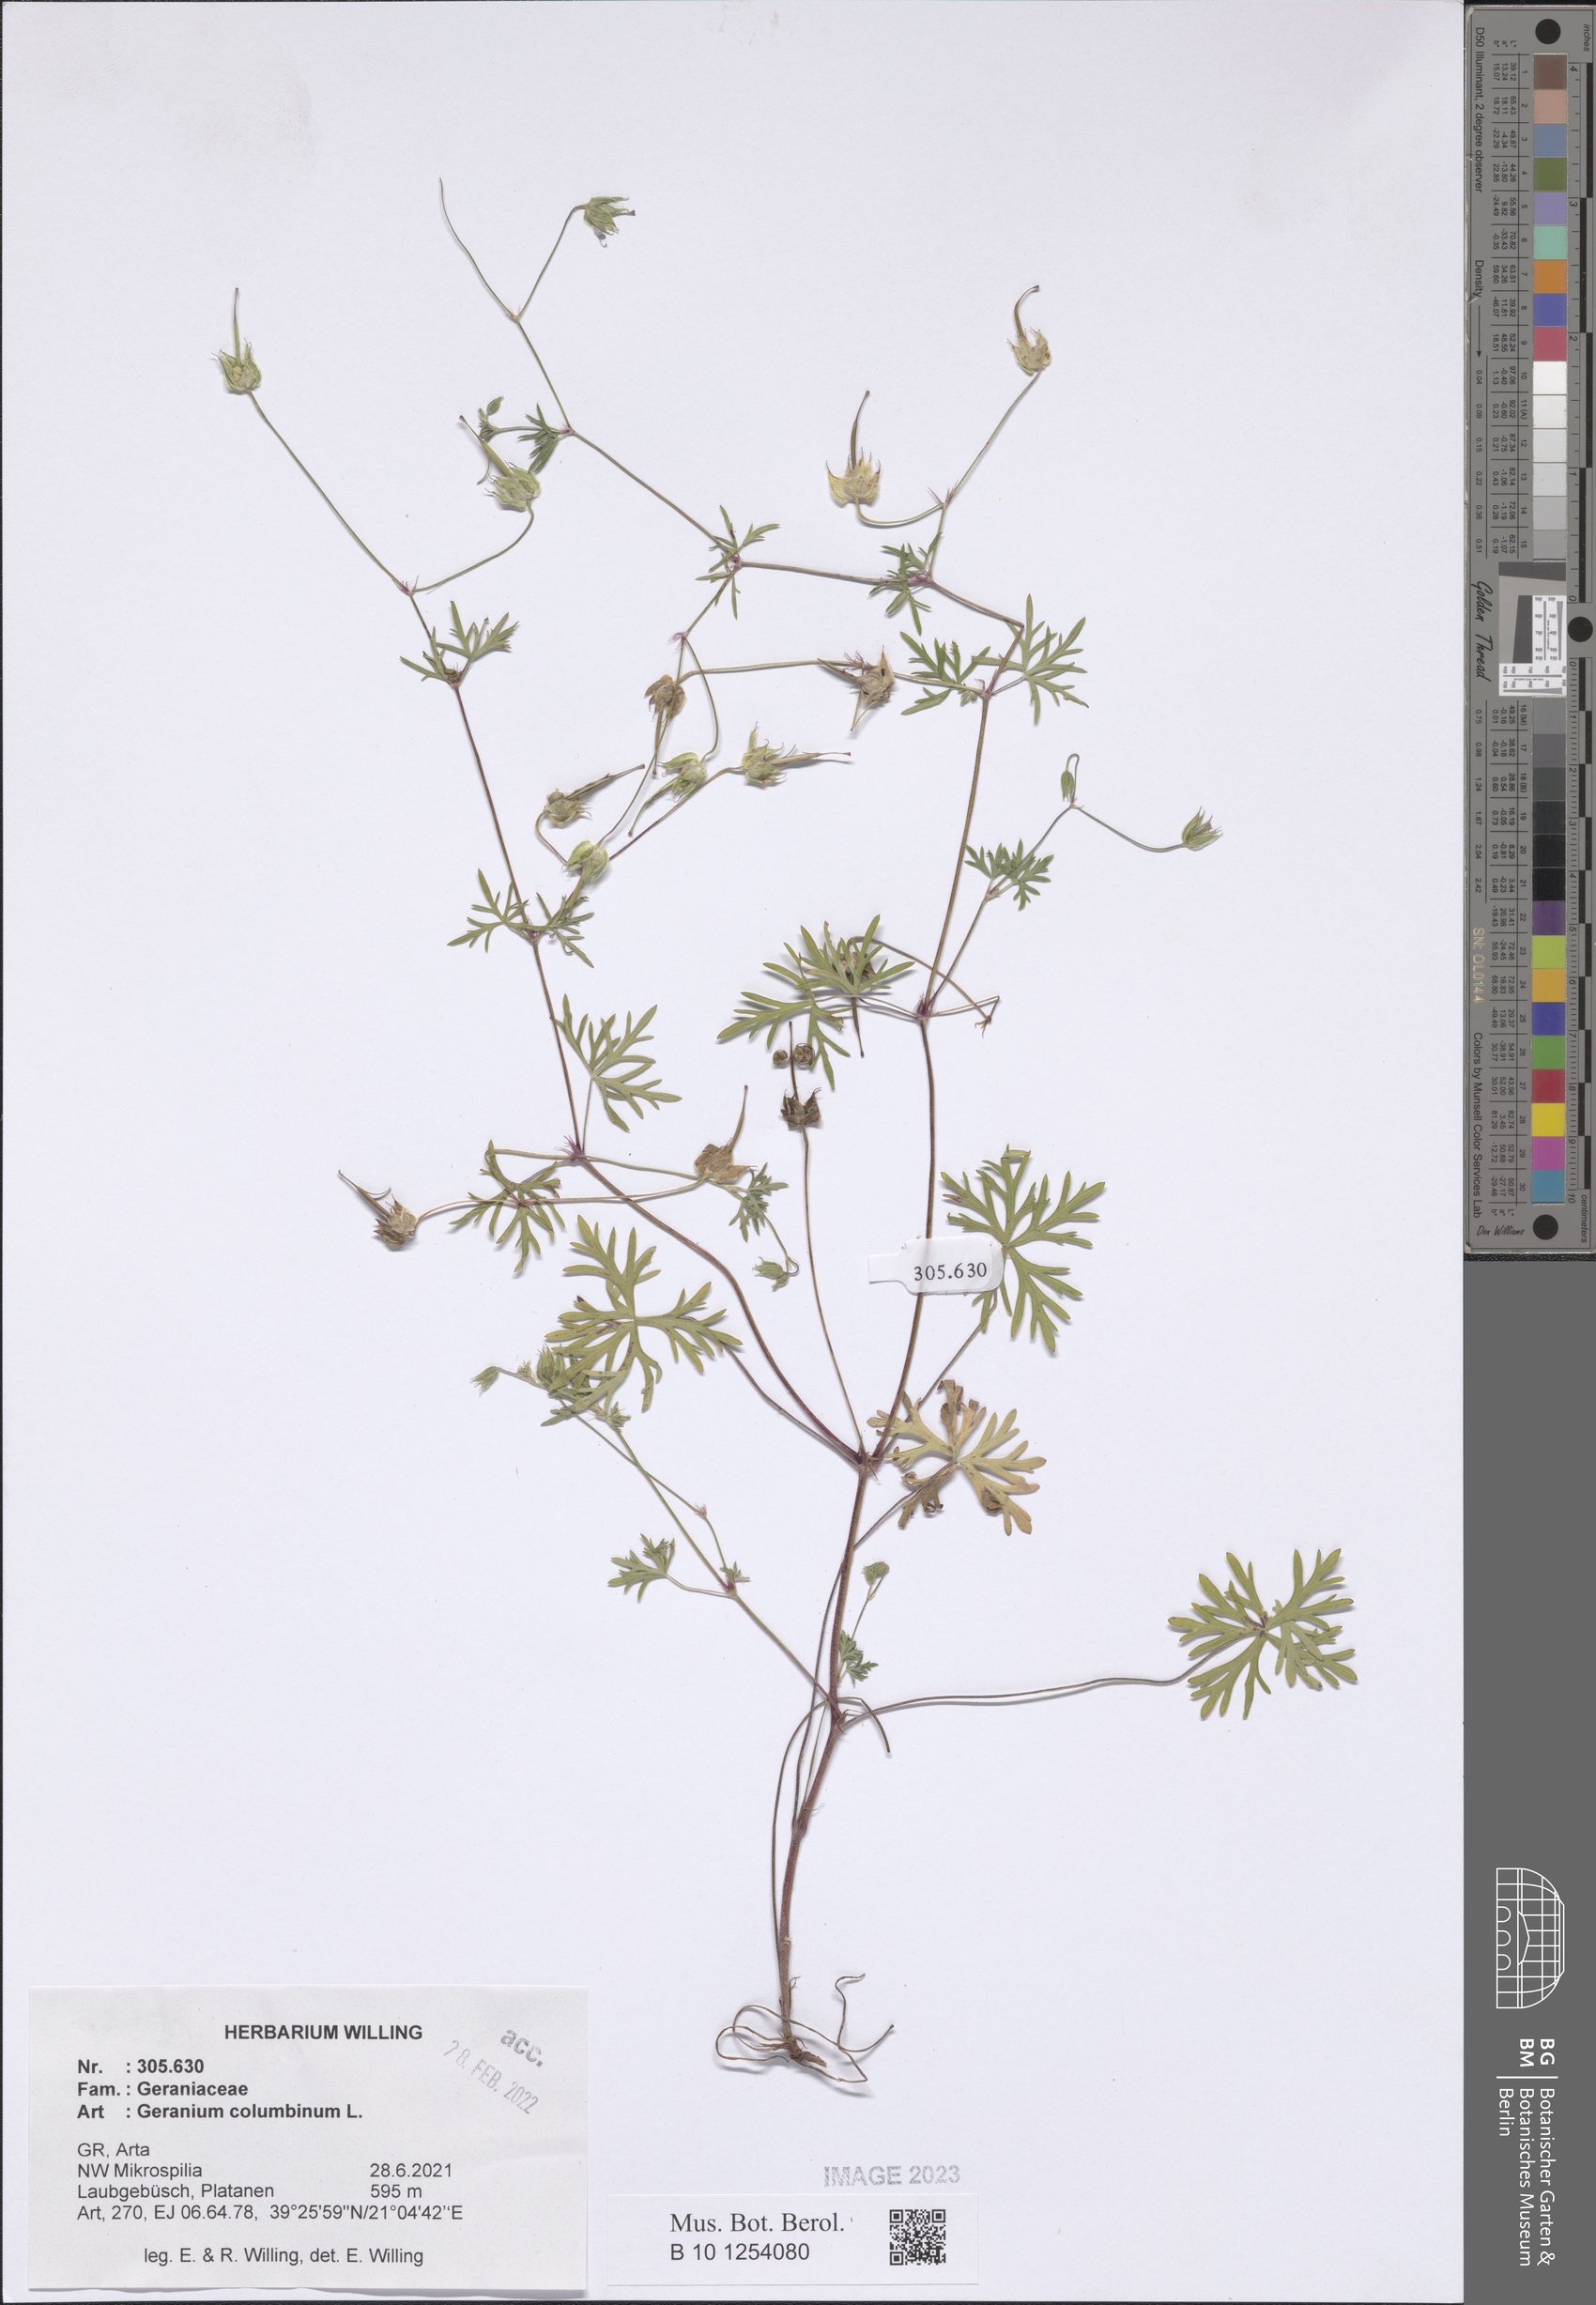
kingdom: Plantae
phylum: Tracheophyta
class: Magnoliopsida
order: Geraniales
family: Geraniaceae
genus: Geranium
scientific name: Geranium columbinum
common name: Long-stalked crane's-bill
